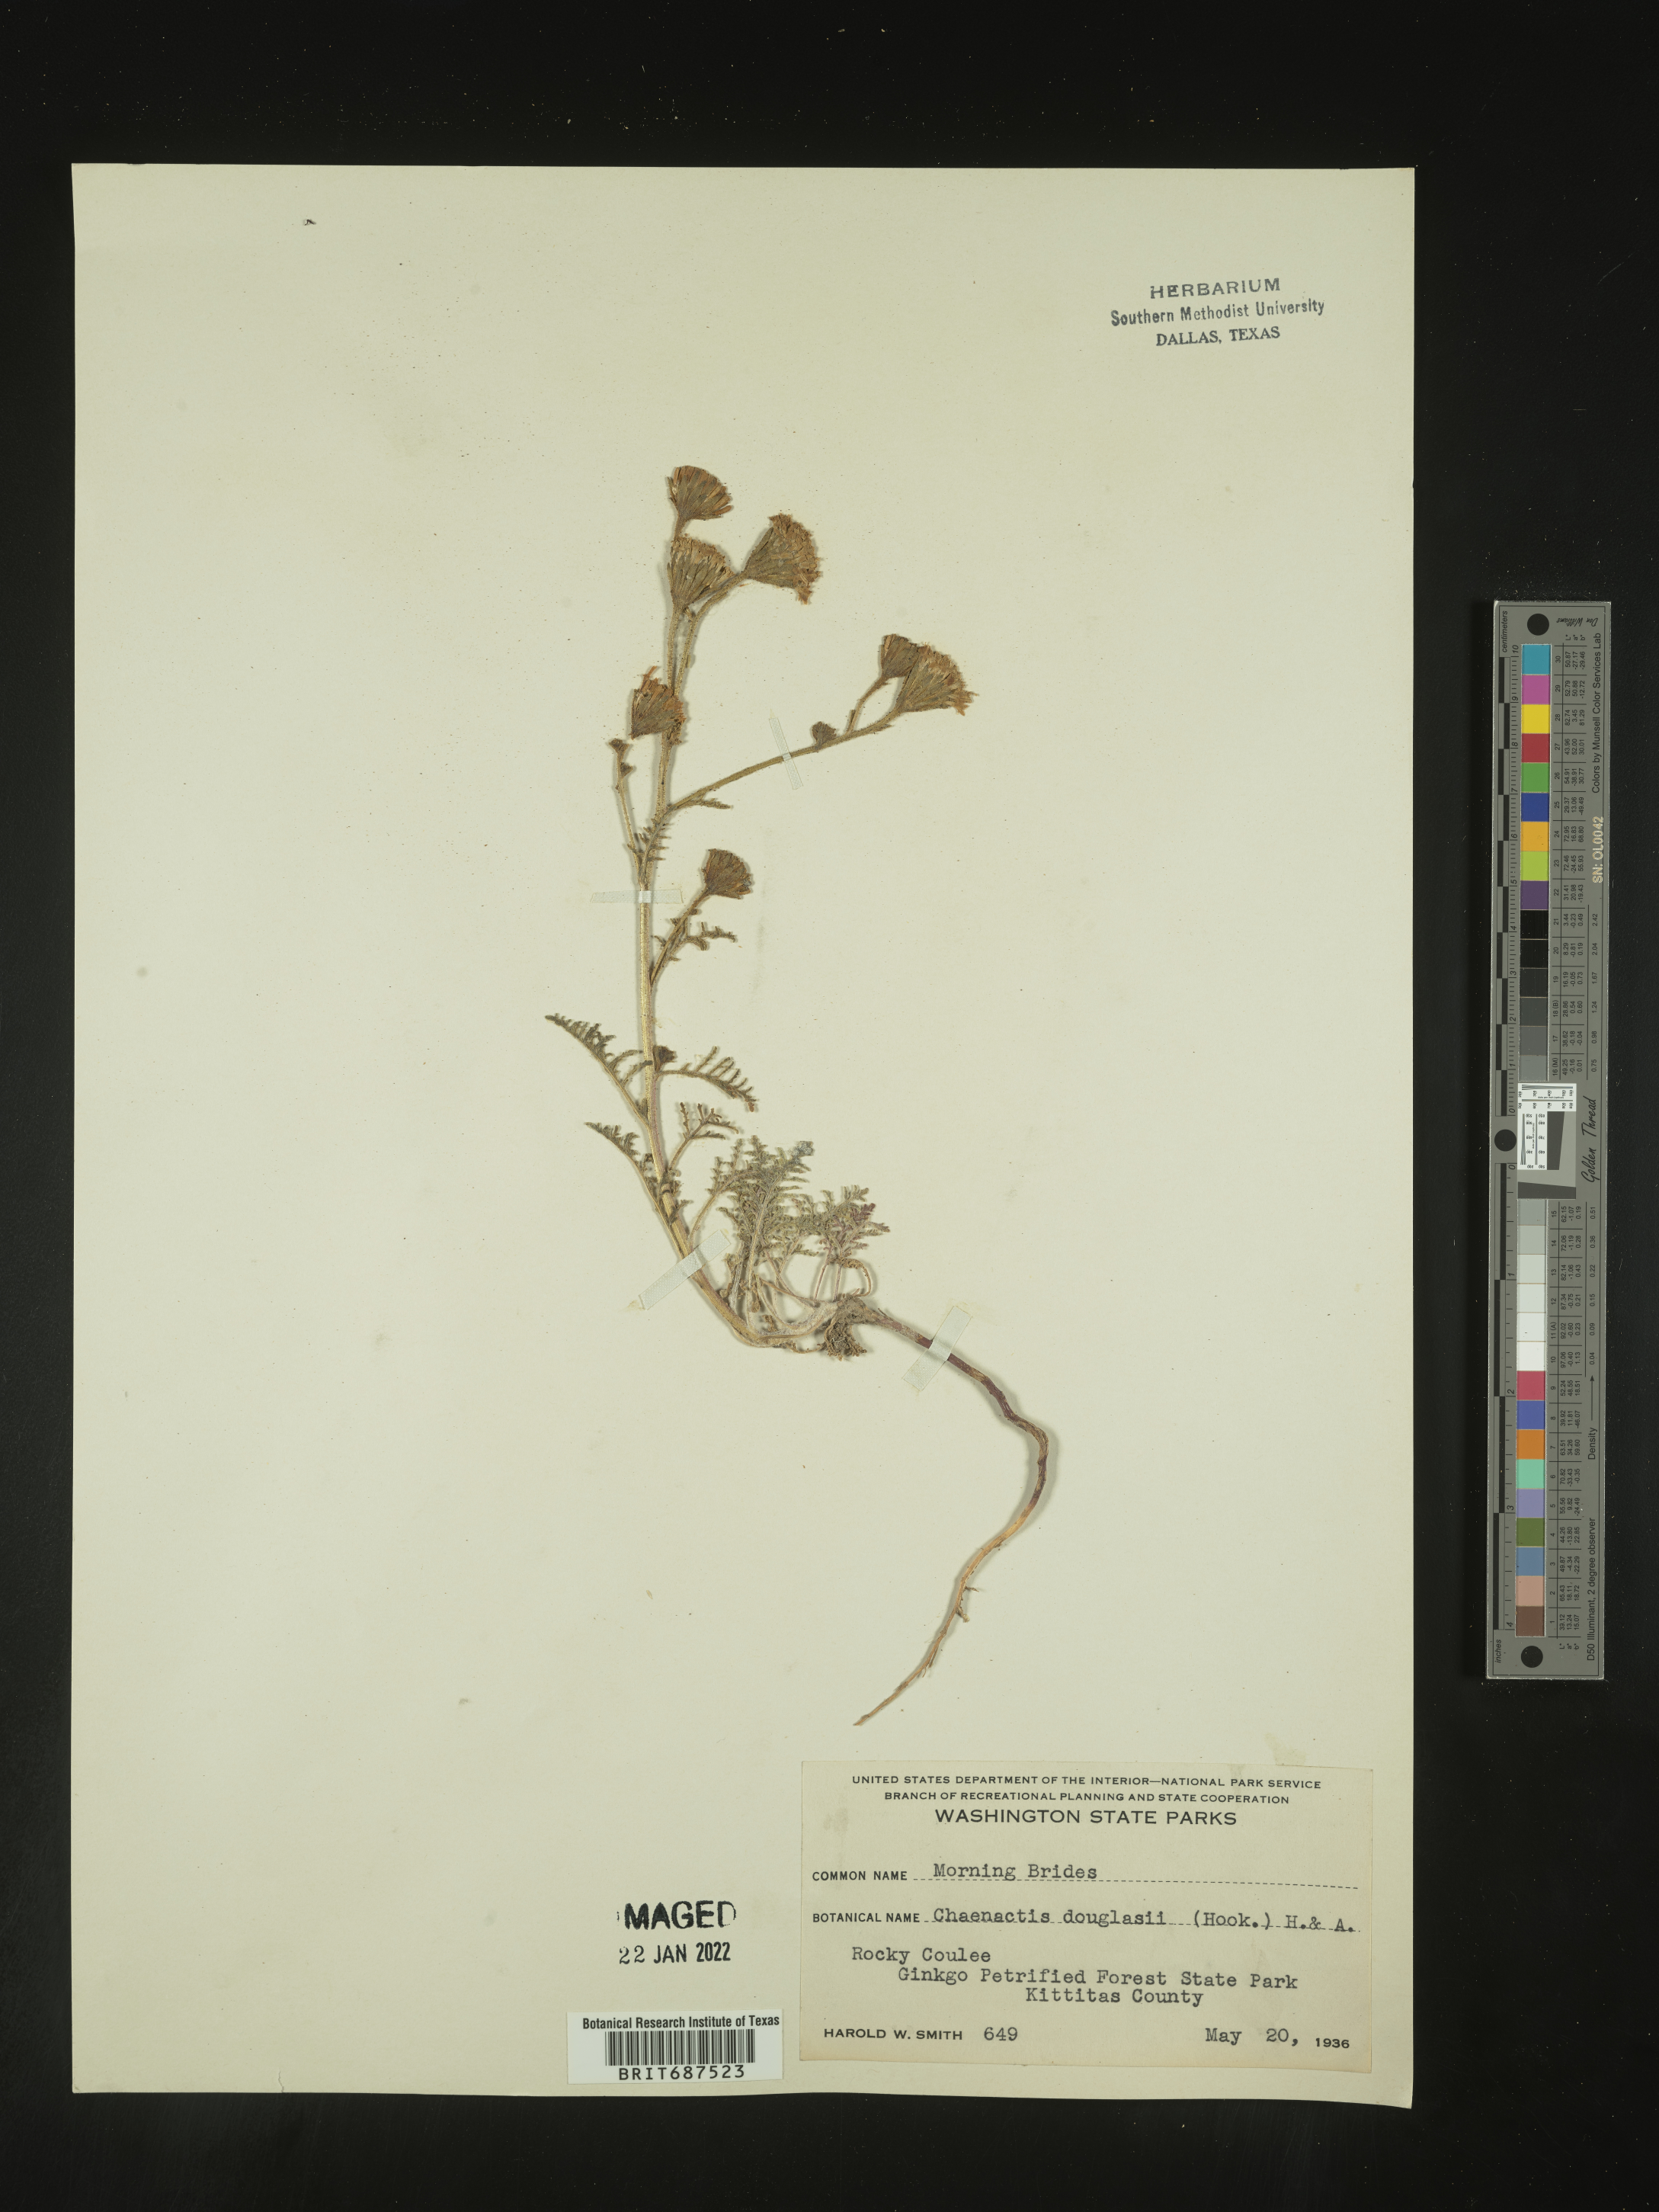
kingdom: Plantae
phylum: Tracheophyta
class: Magnoliopsida
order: Asterales
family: Asteraceae
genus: Chaenactis
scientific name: Chaenactis douglasii
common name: Hoary pincushion
